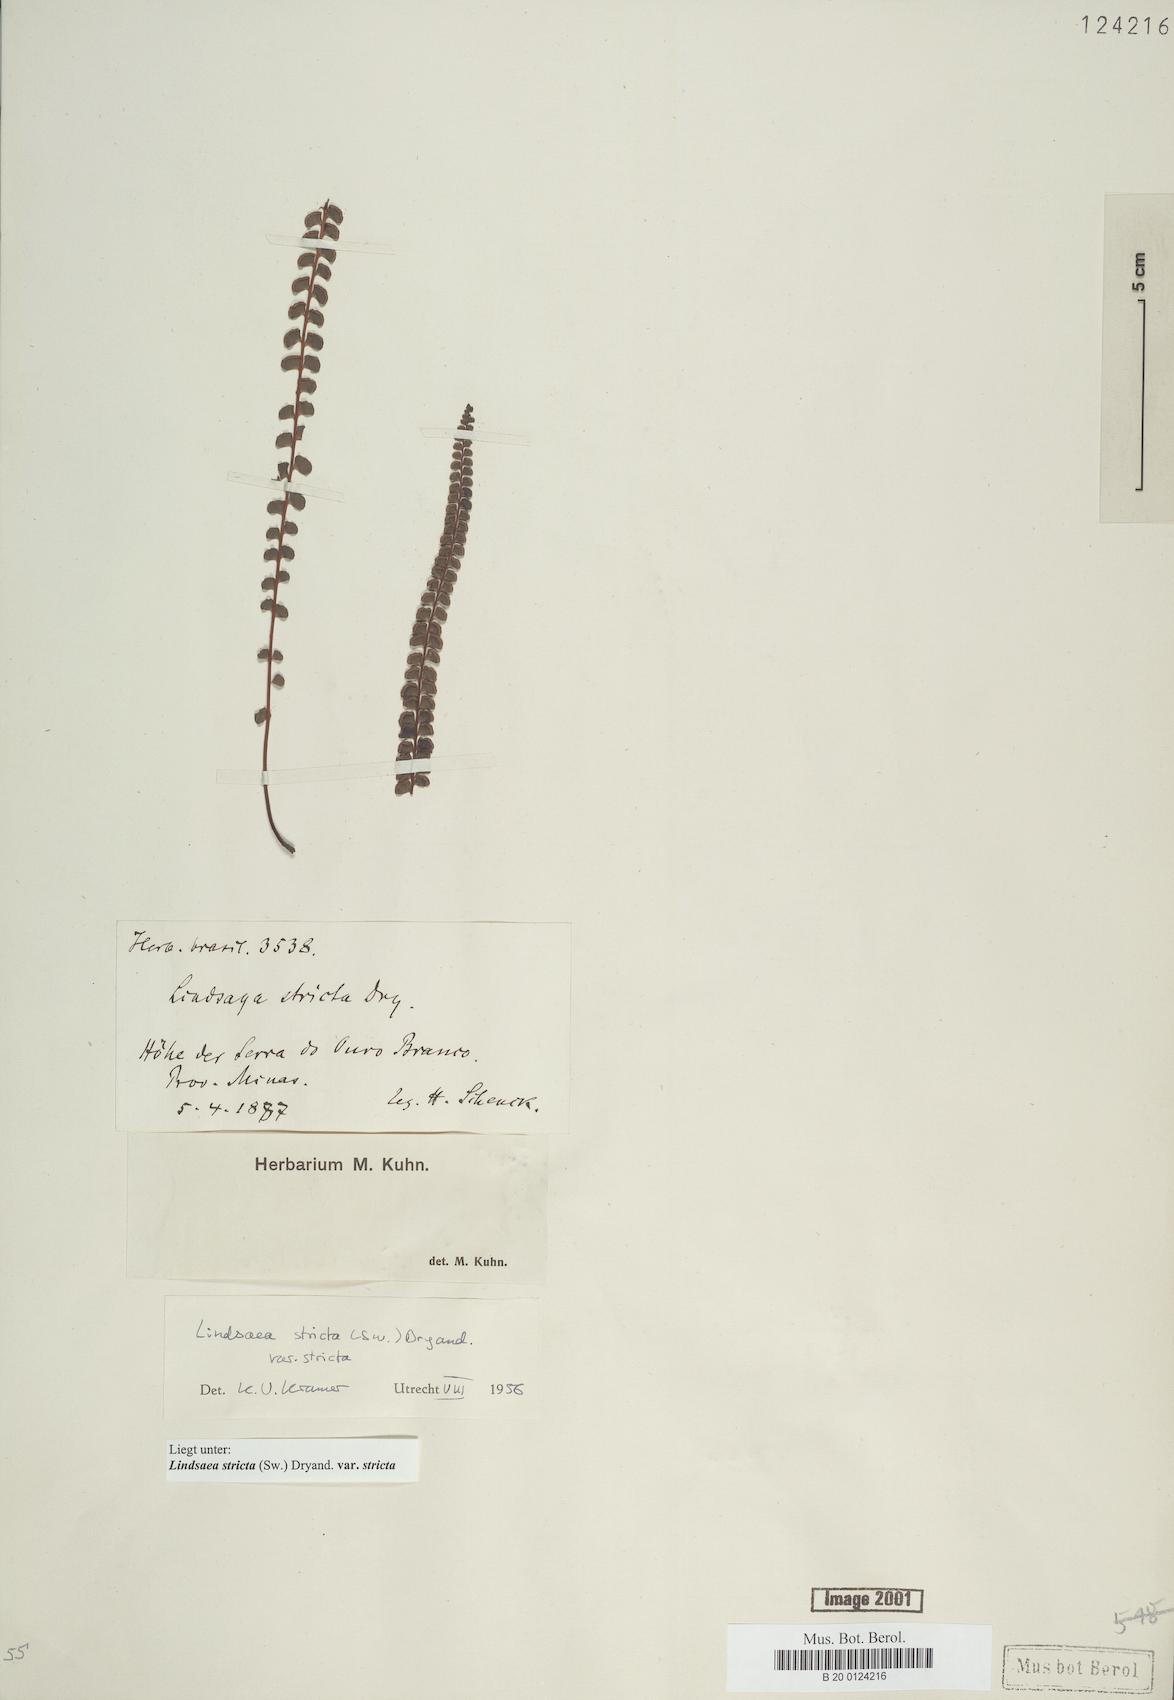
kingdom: Plantae
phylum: Tracheophyta
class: Polypodiopsida
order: Polypodiales
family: Lindsaeaceae
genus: Lindsaea
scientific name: Lindsaea stricta
